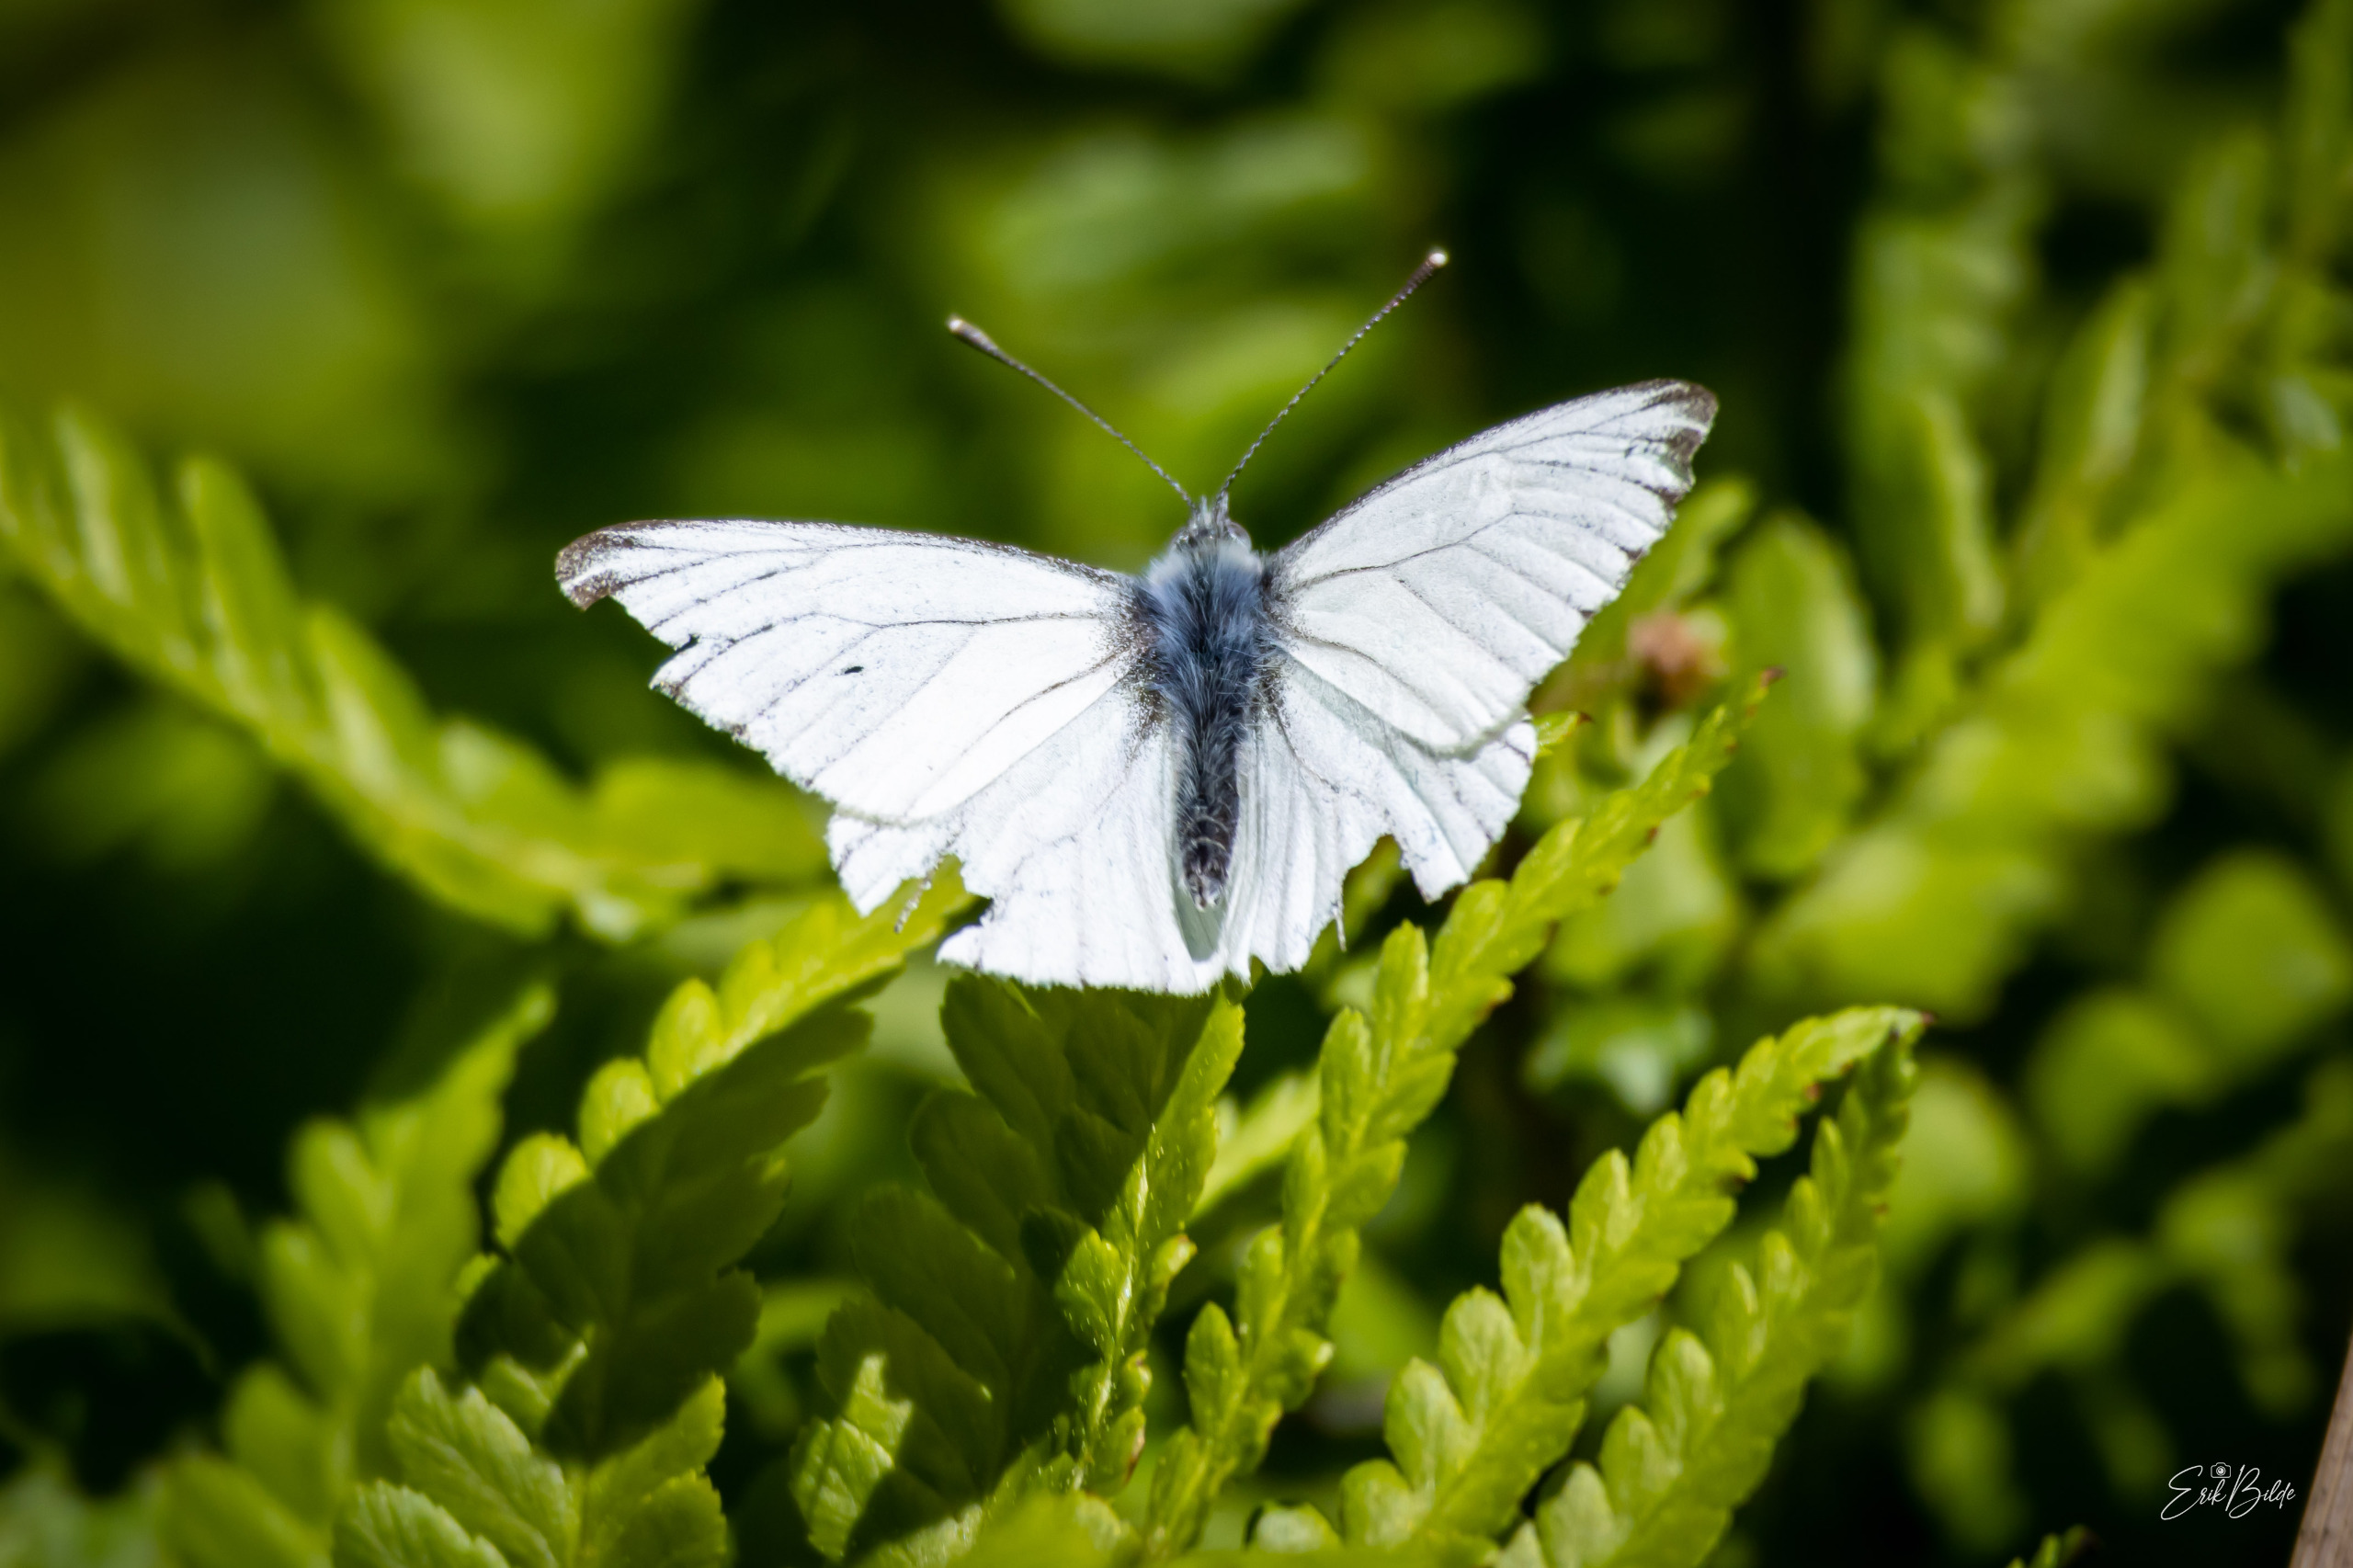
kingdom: Animalia
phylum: Arthropoda
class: Insecta
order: Lepidoptera
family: Pieridae
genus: Pieris
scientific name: Pieris napi
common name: Grønåret kålsommerfugl
